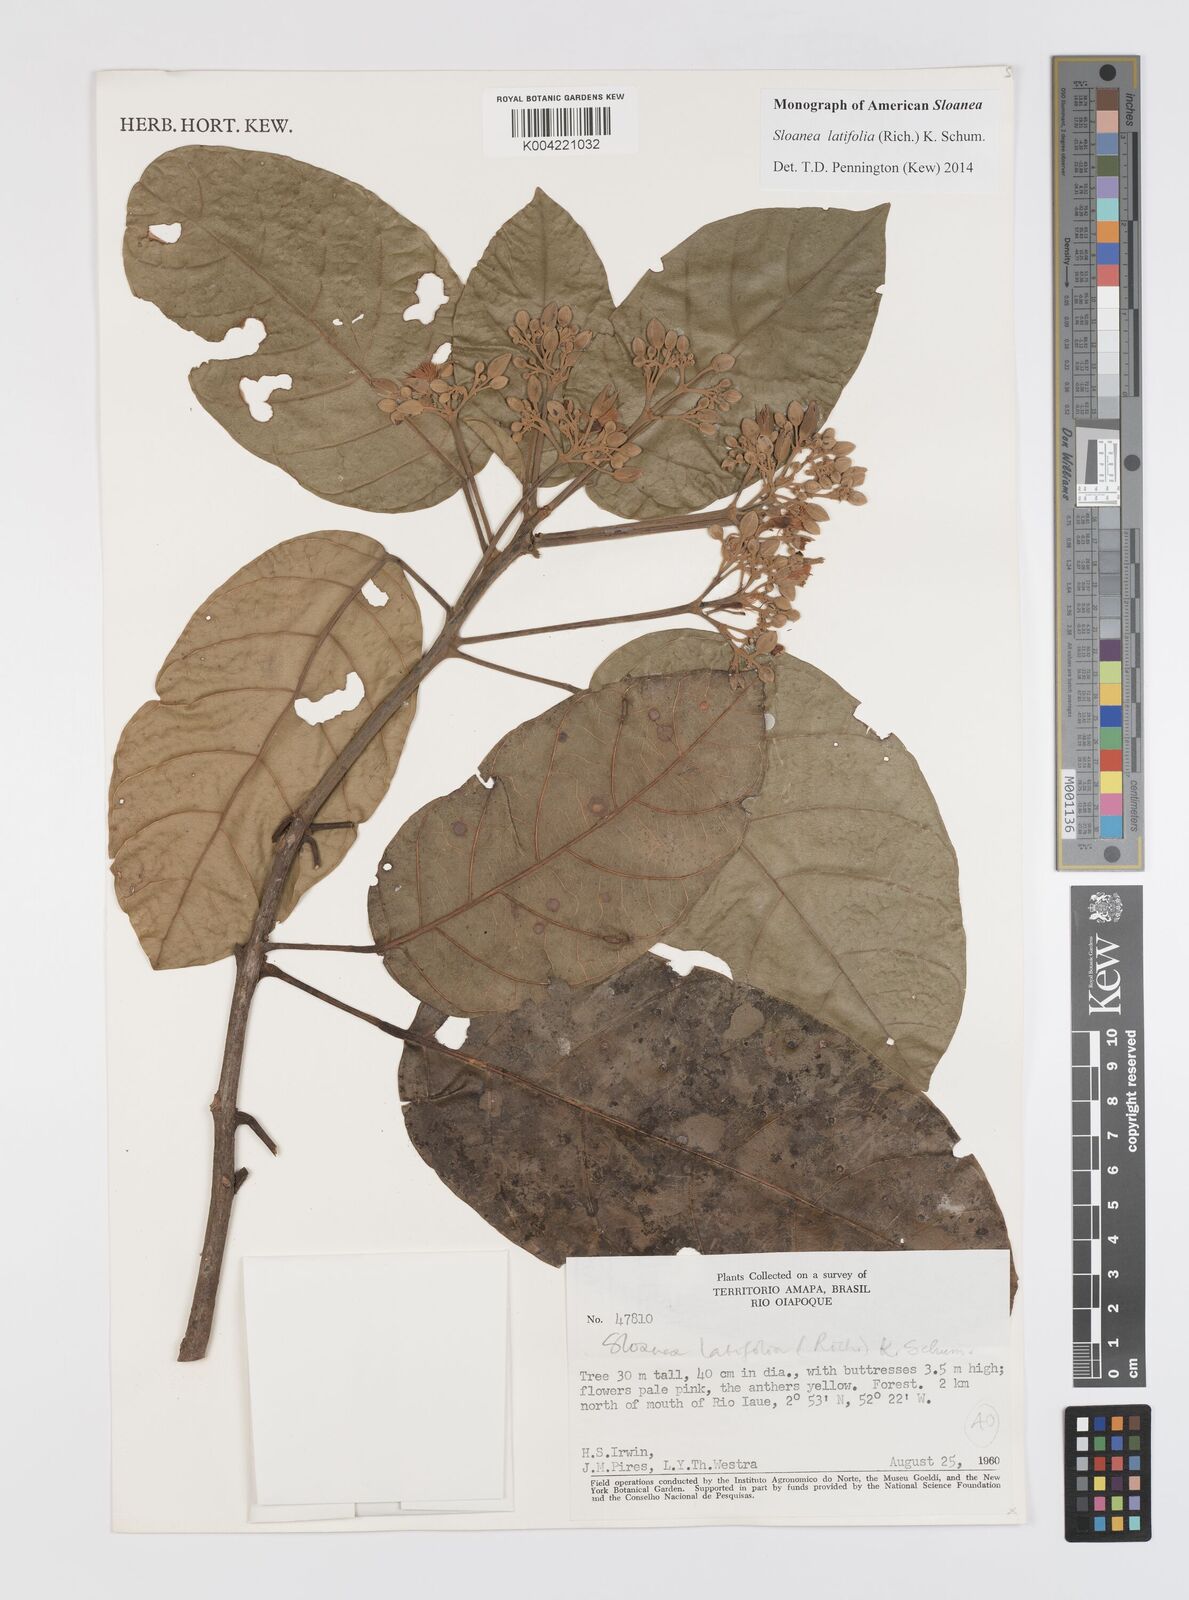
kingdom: Plantae
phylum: Tracheophyta
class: Magnoliopsida
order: Oxalidales
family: Elaeocarpaceae
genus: Sloanea
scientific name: Sloanea latifolia
